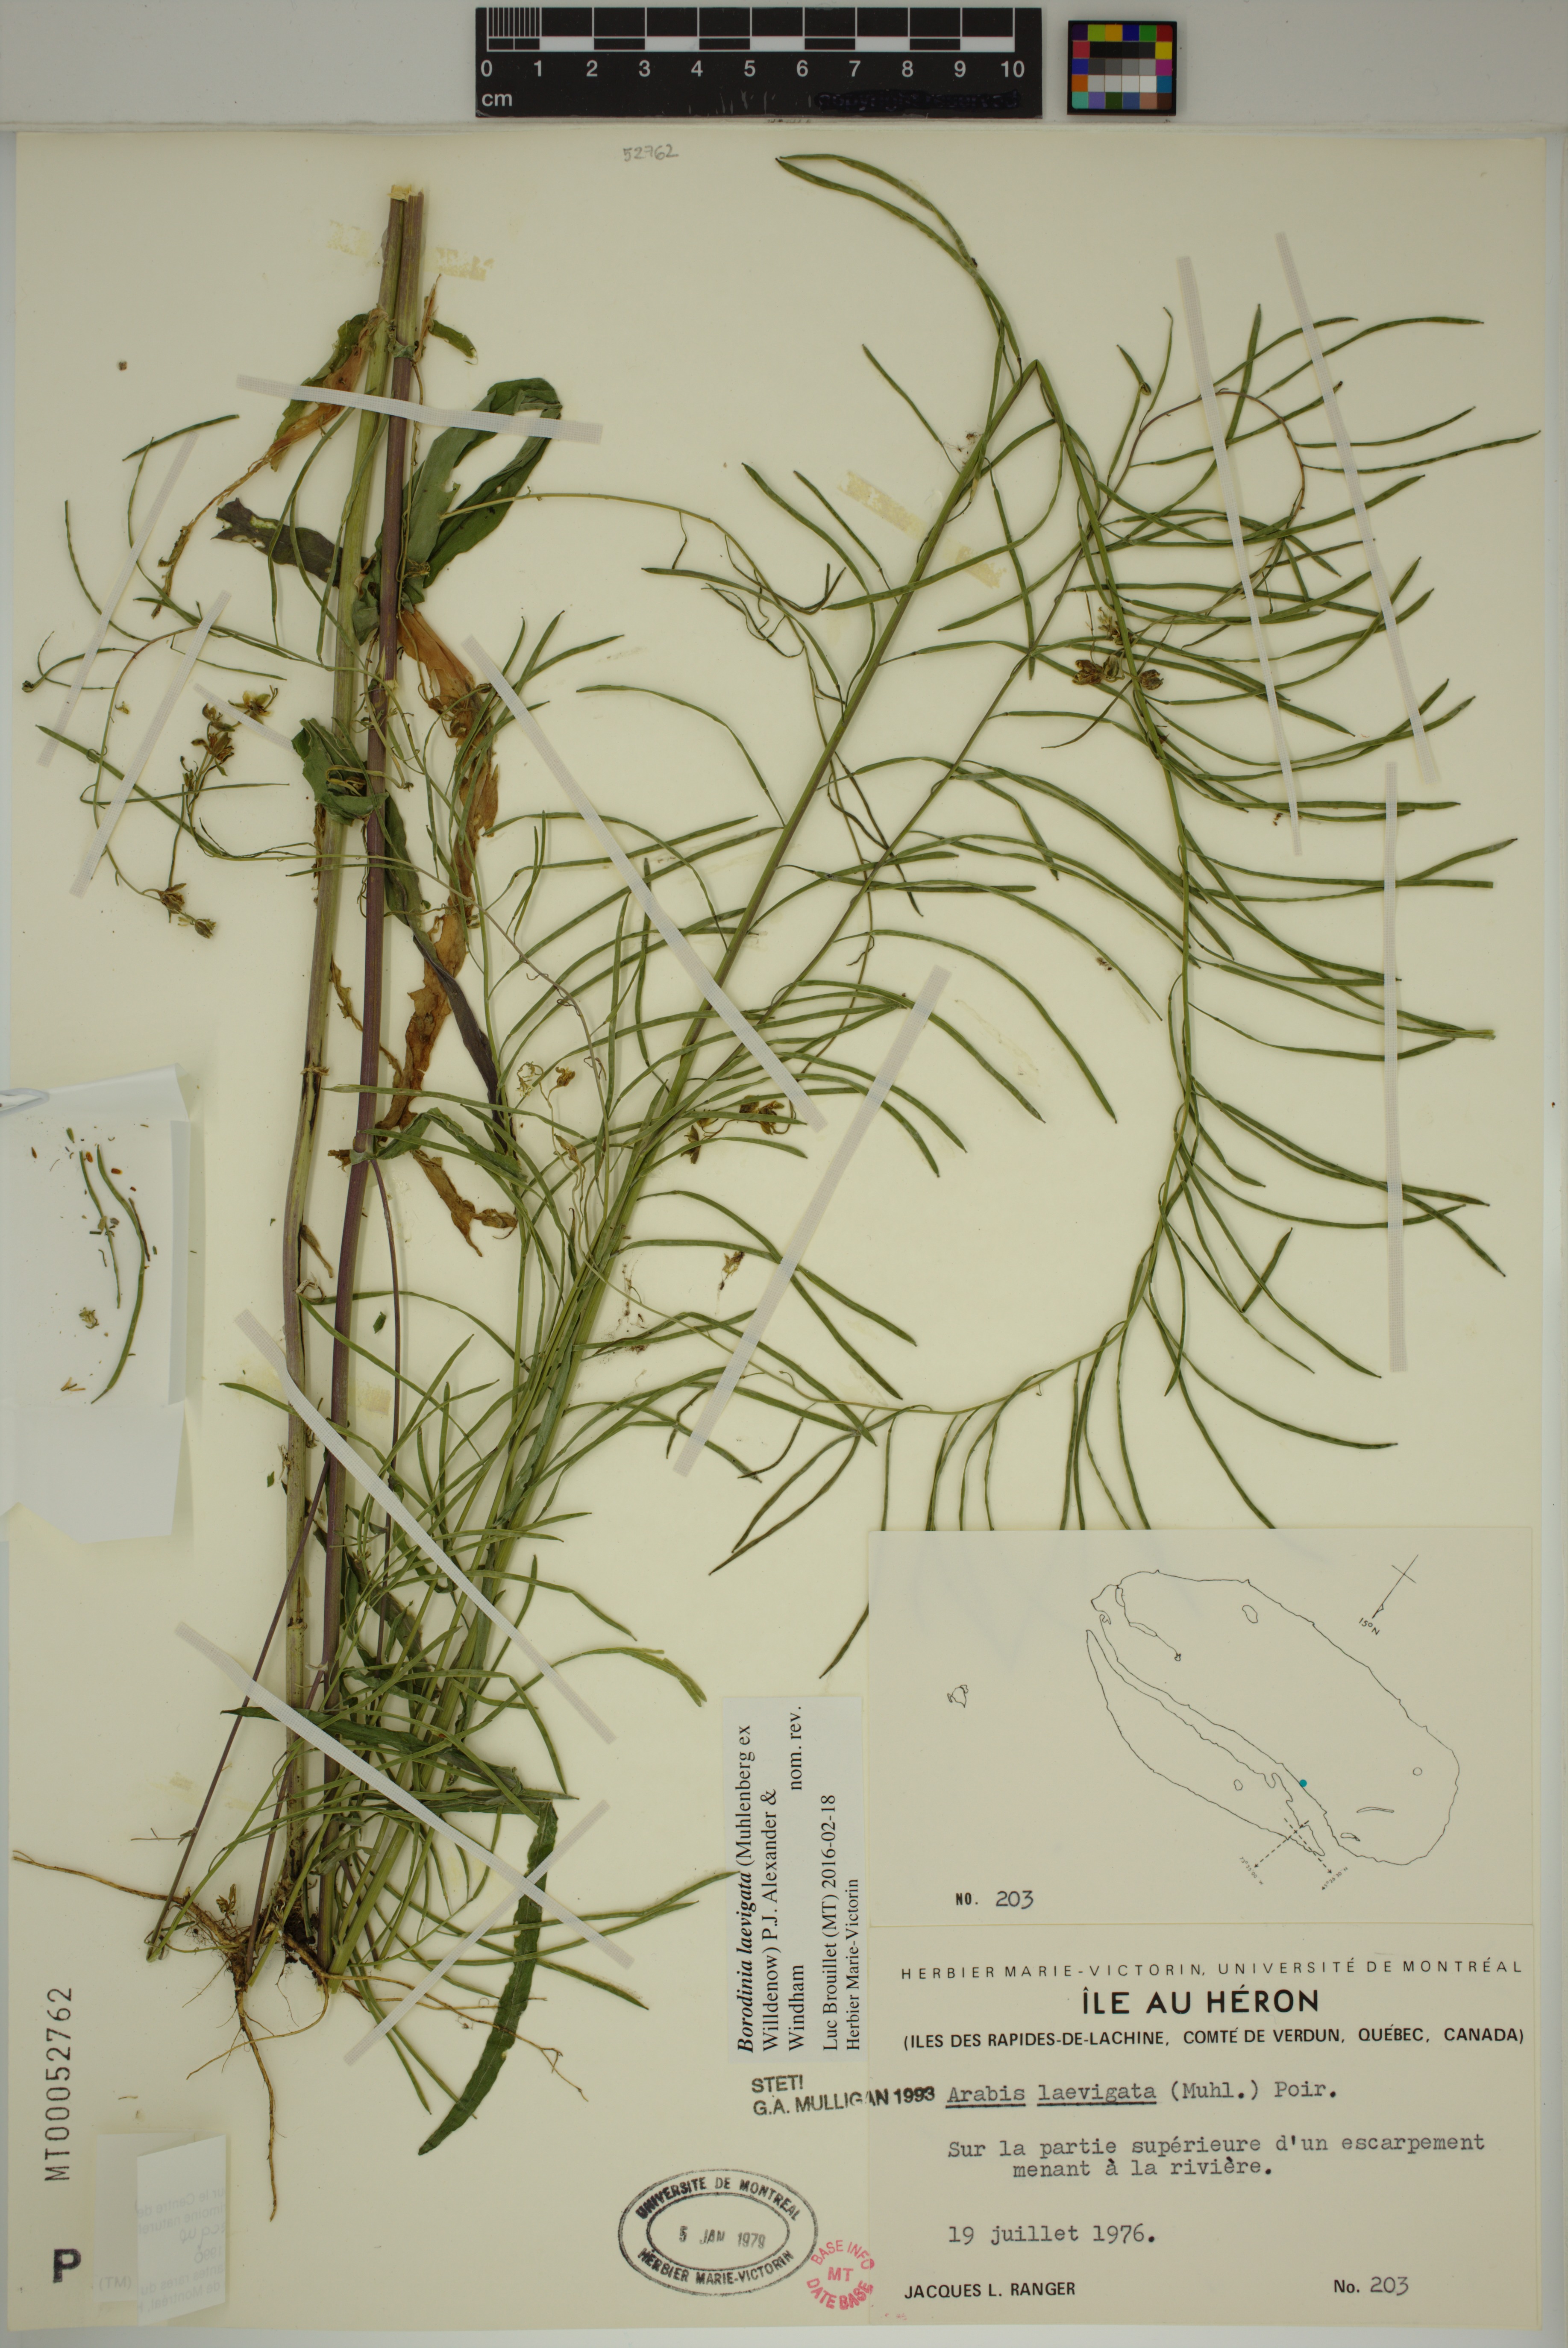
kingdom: Plantae
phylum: Tracheophyta
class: Magnoliopsida
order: Brassicales
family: Brassicaceae
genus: Borodinia
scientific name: Borodinia laevigata
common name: Smooth rockcress
